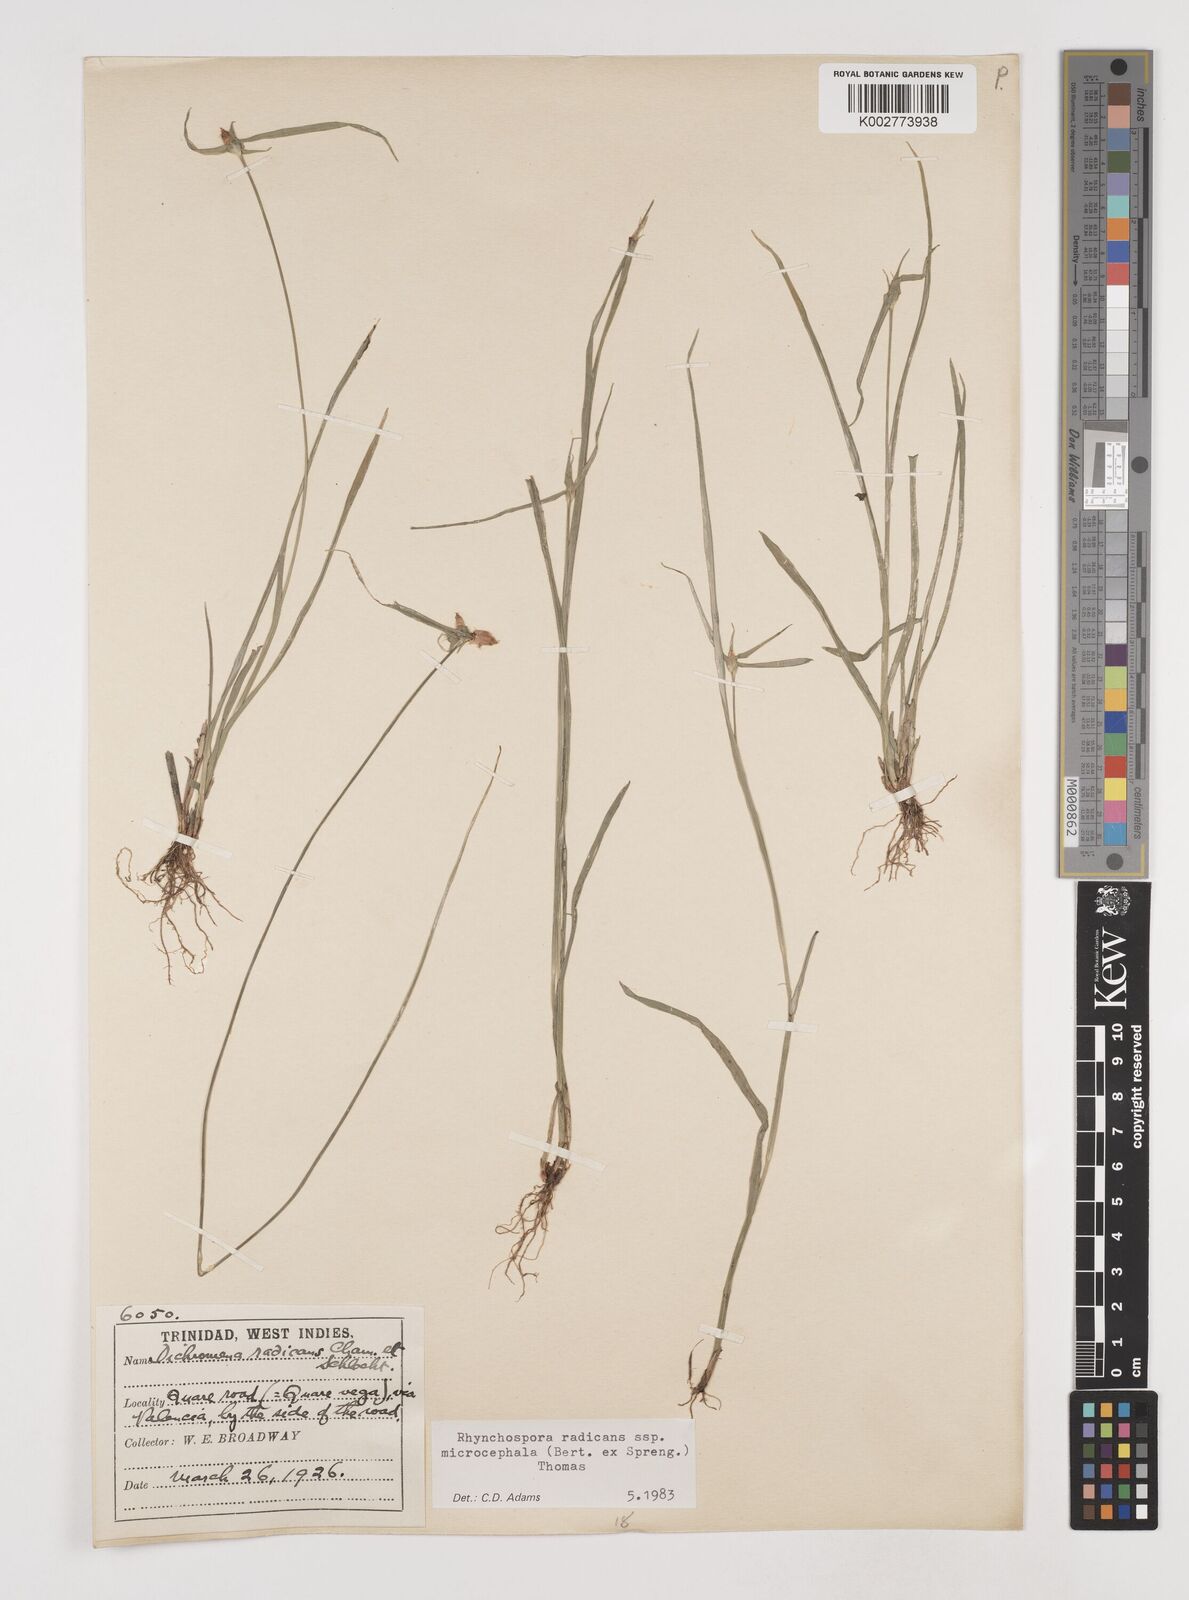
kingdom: Plantae
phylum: Tracheophyta
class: Liliopsida
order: Poales
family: Cyperaceae
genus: Rhynchospora
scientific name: Rhynchospora radicans
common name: Tropical whitetop
